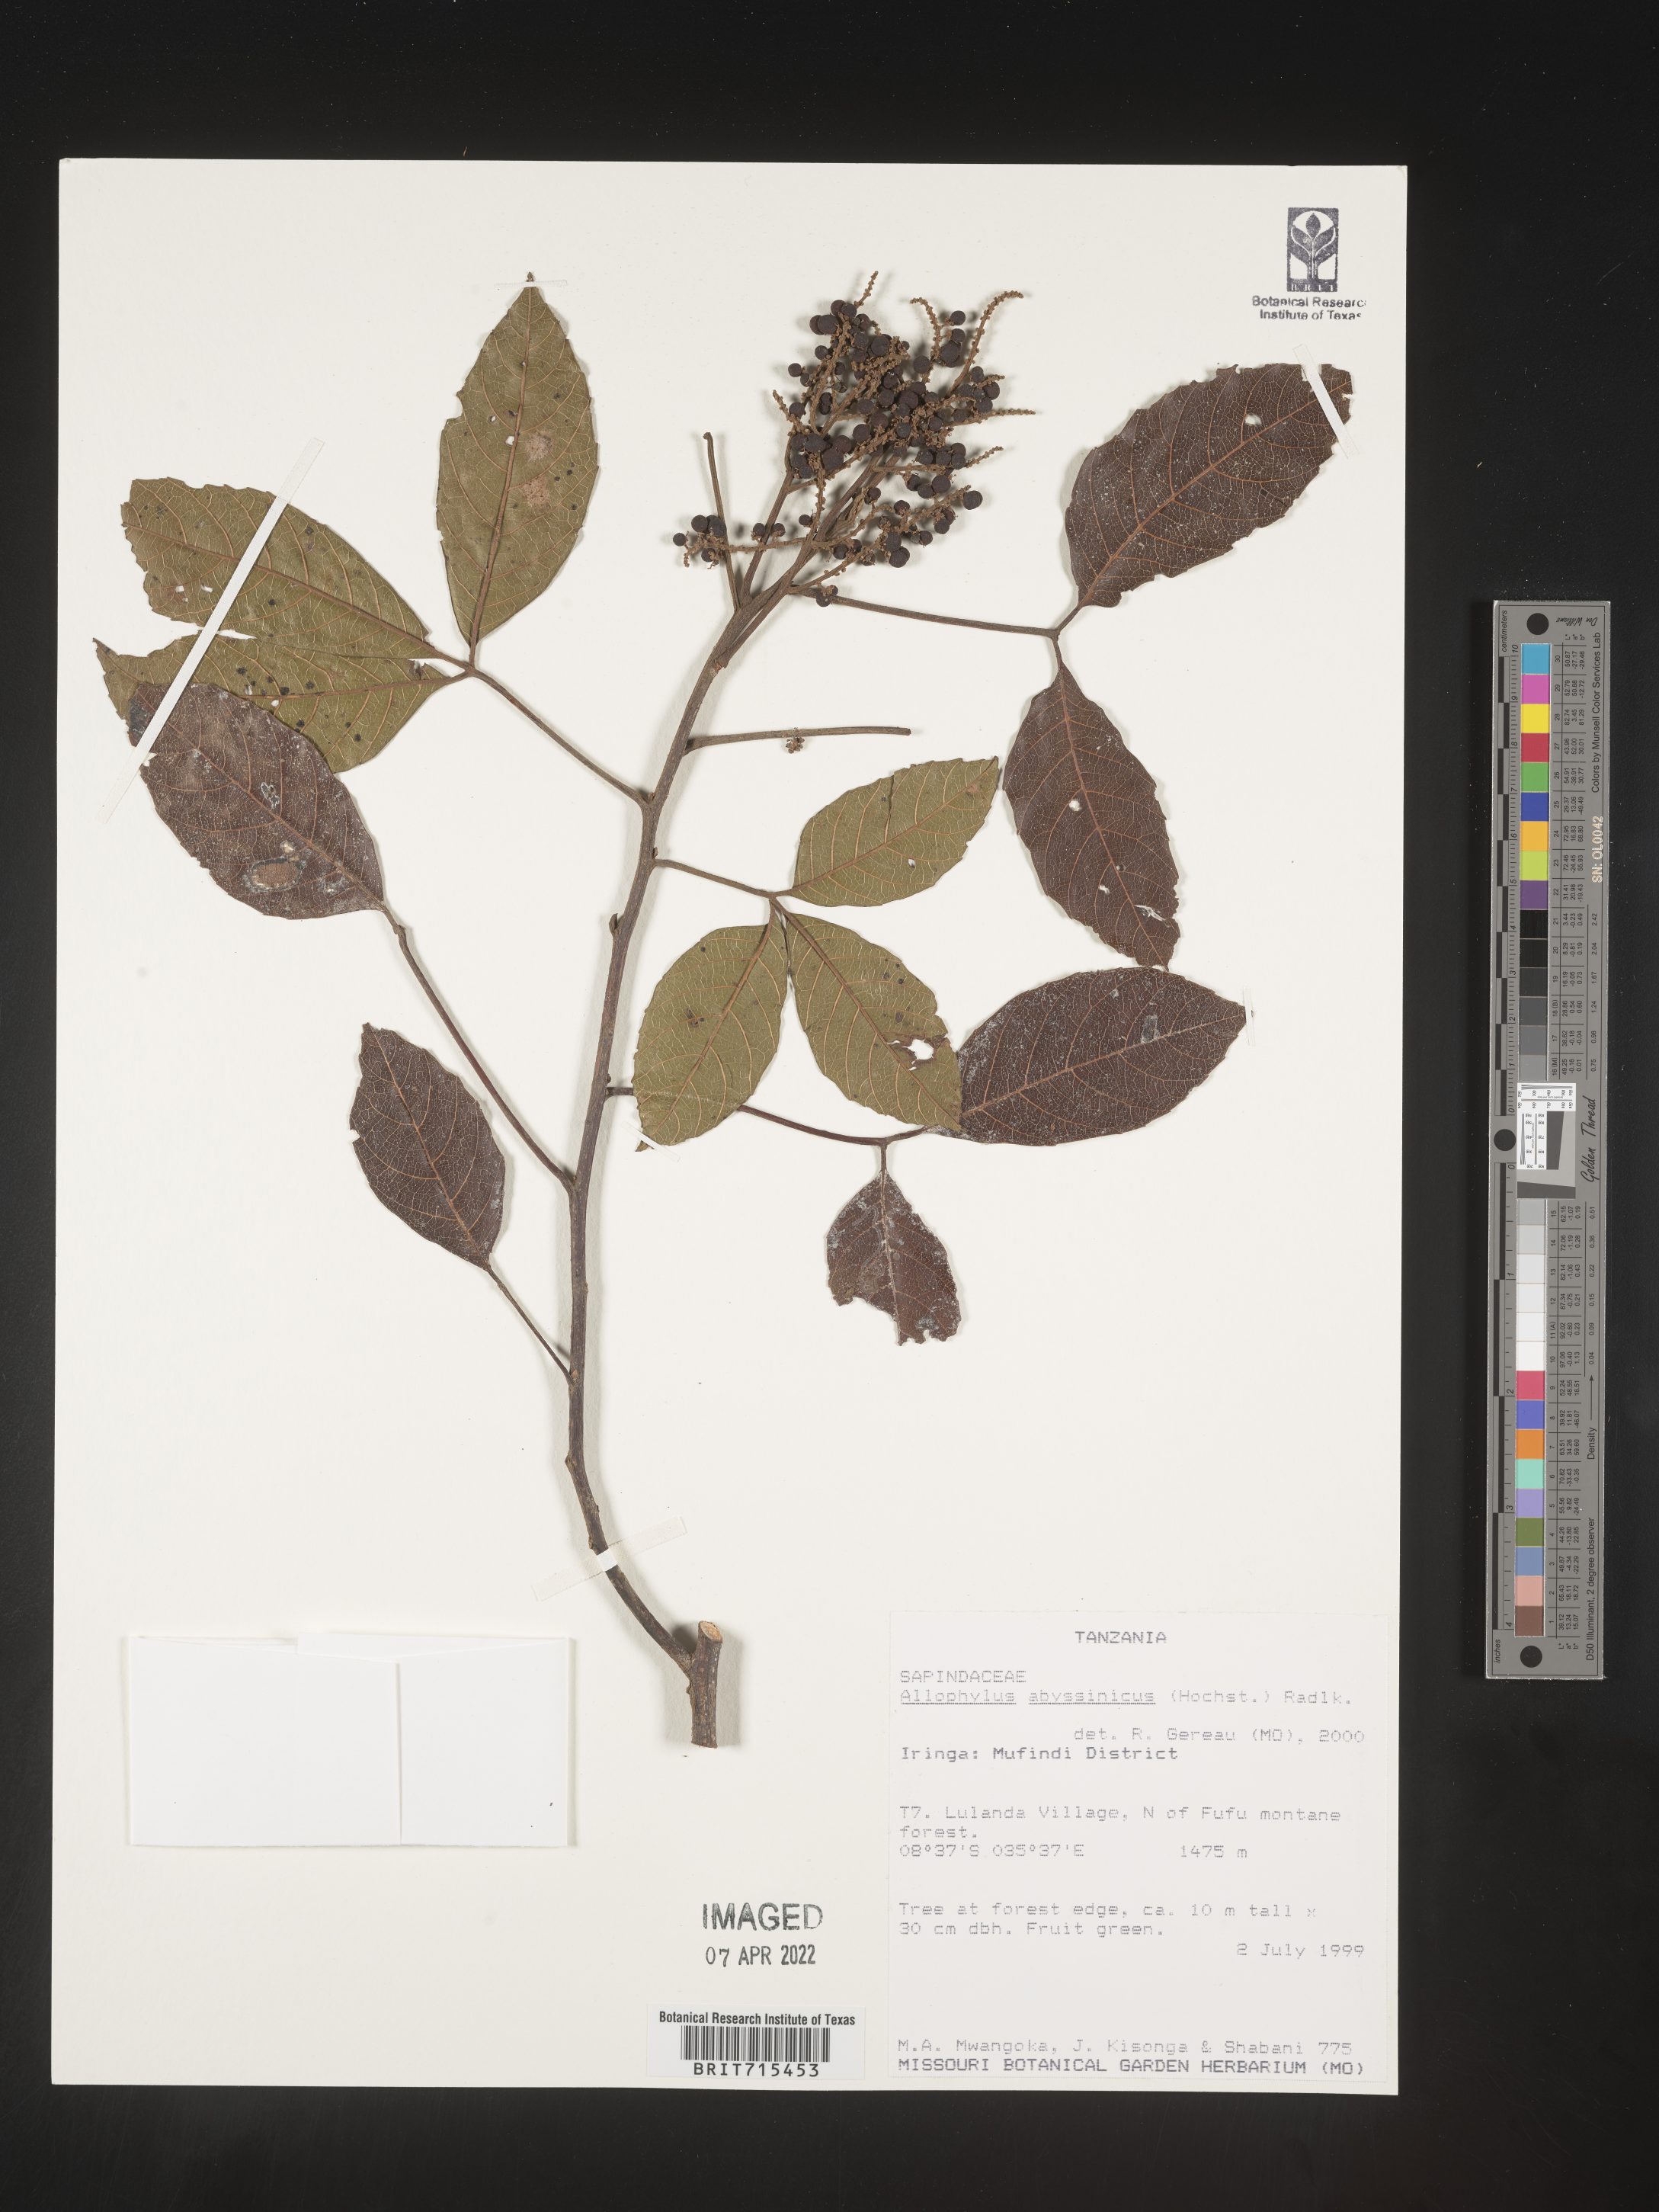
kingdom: Plantae
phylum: Tracheophyta
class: Magnoliopsida
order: Sapindales
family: Sapindaceae
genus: Allophylus
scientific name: Allophylus abyssinicus
